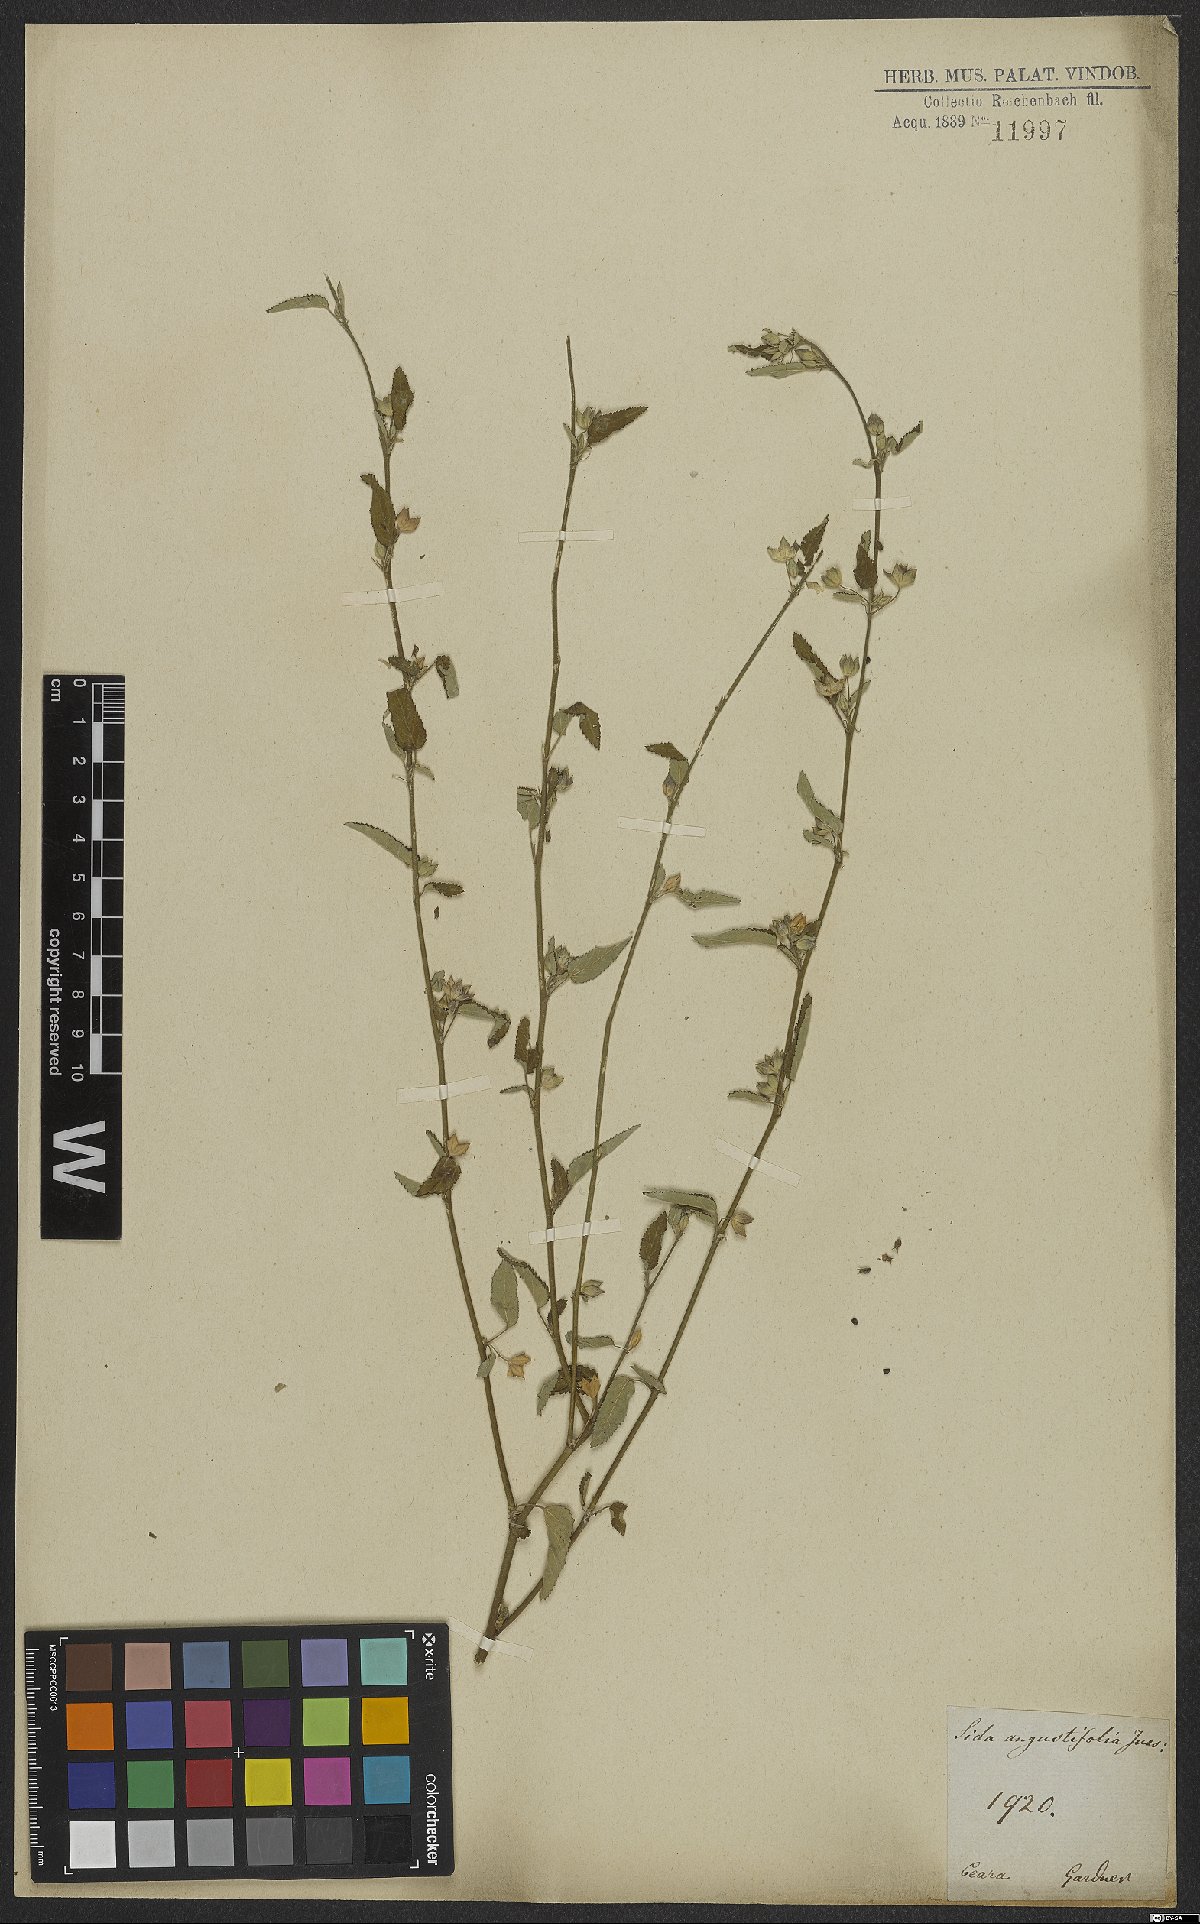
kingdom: Plantae
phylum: Tracheophyta
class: Magnoliopsida
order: Malvales
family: Malvaceae
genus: Sida
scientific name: Sida spinosa
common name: Prickly fanpetals
